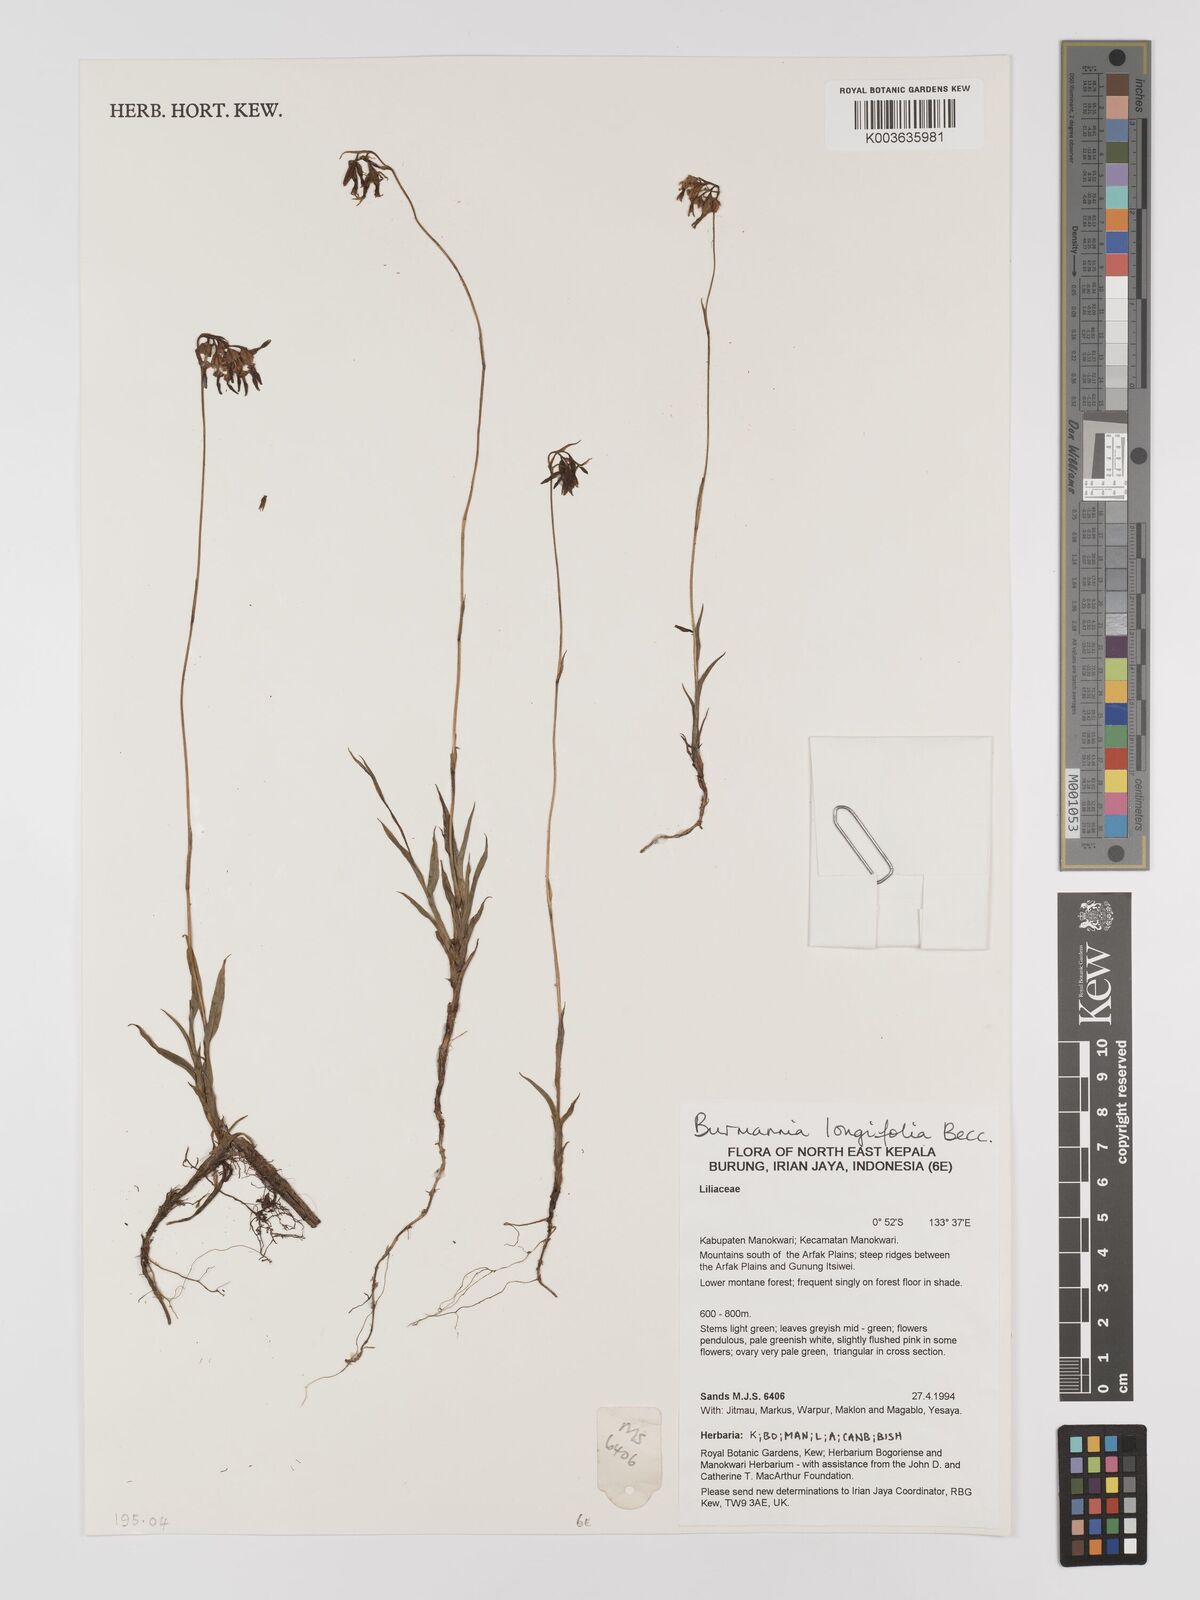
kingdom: Plantae
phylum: Tracheophyta
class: Liliopsida
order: Dioscoreales
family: Burmanniaceae
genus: Burmannia
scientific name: Burmannia longifolia
